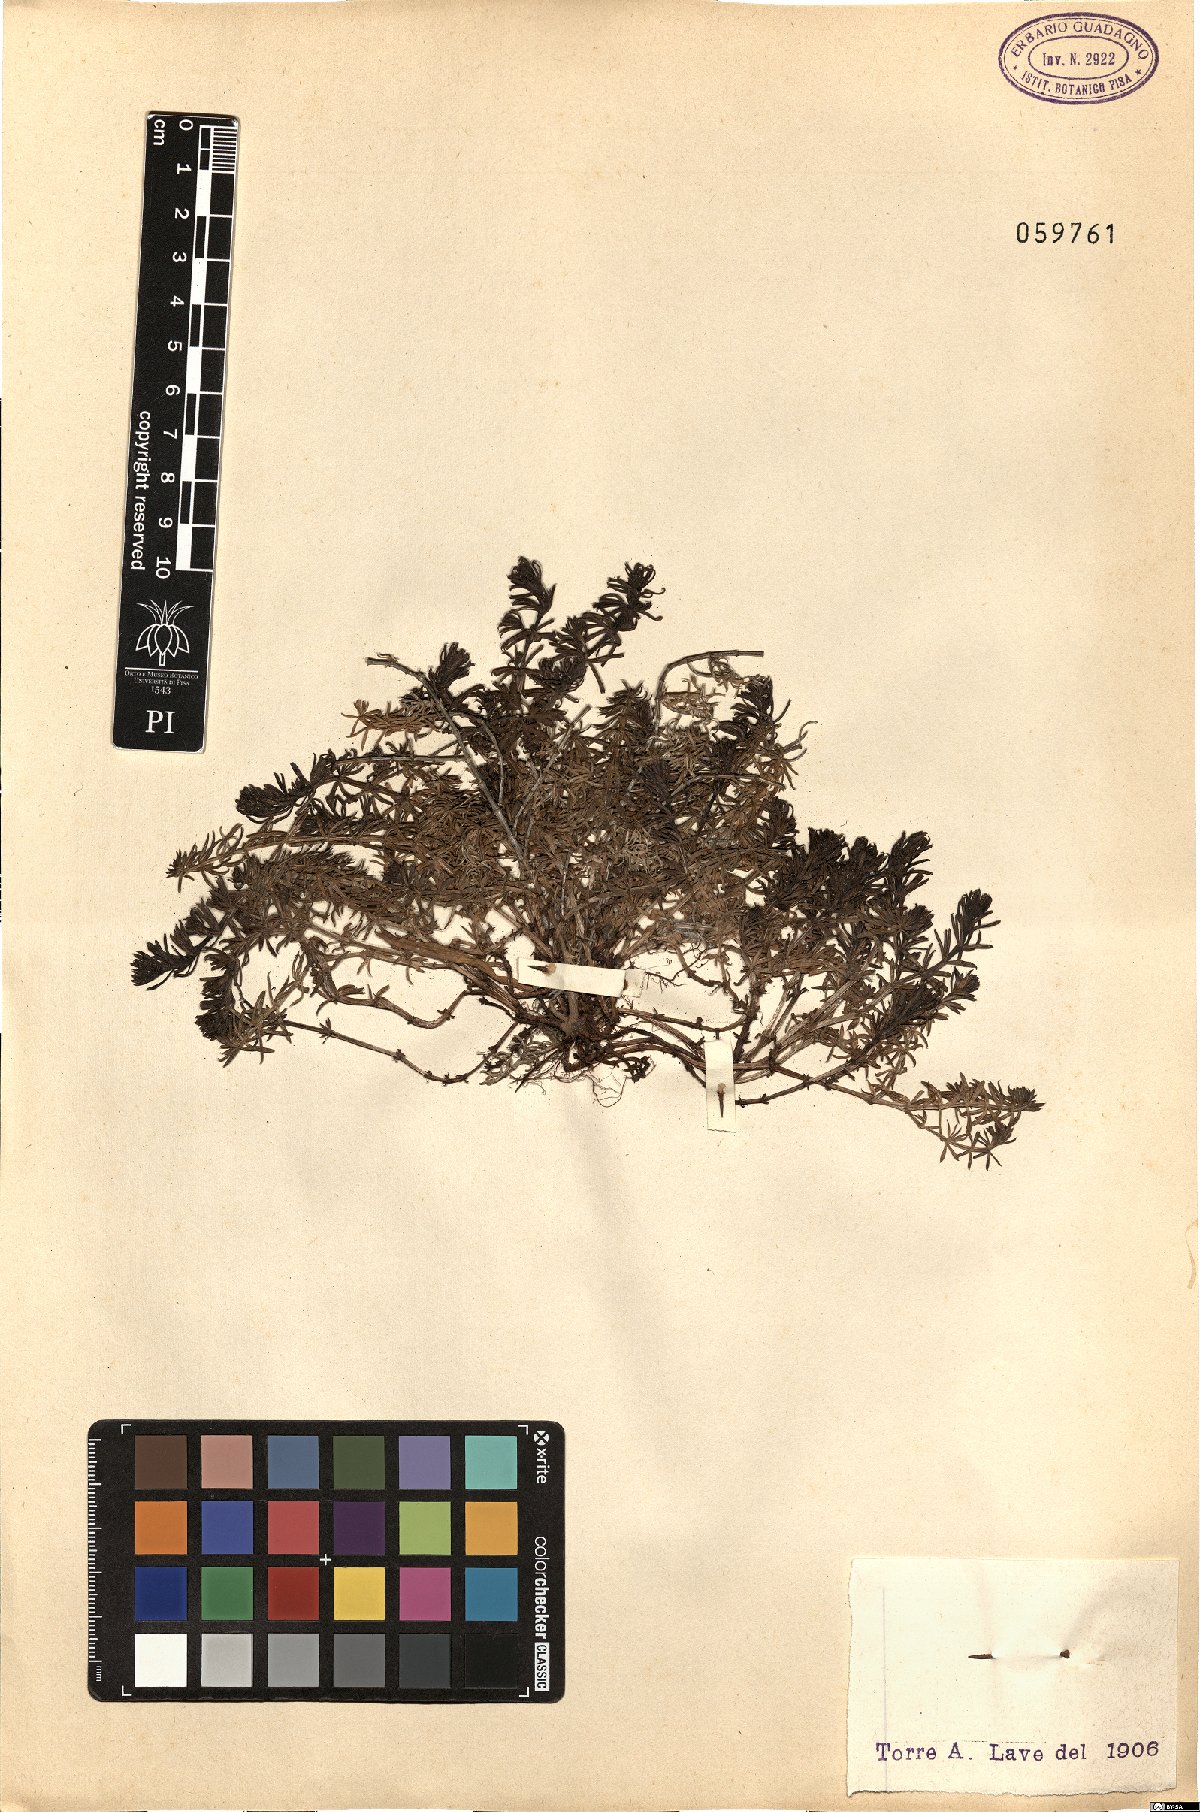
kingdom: Plantae
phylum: Tracheophyta
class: Magnoliopsida
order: Gentianales
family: Rubiaceae
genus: Galium
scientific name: Galium
